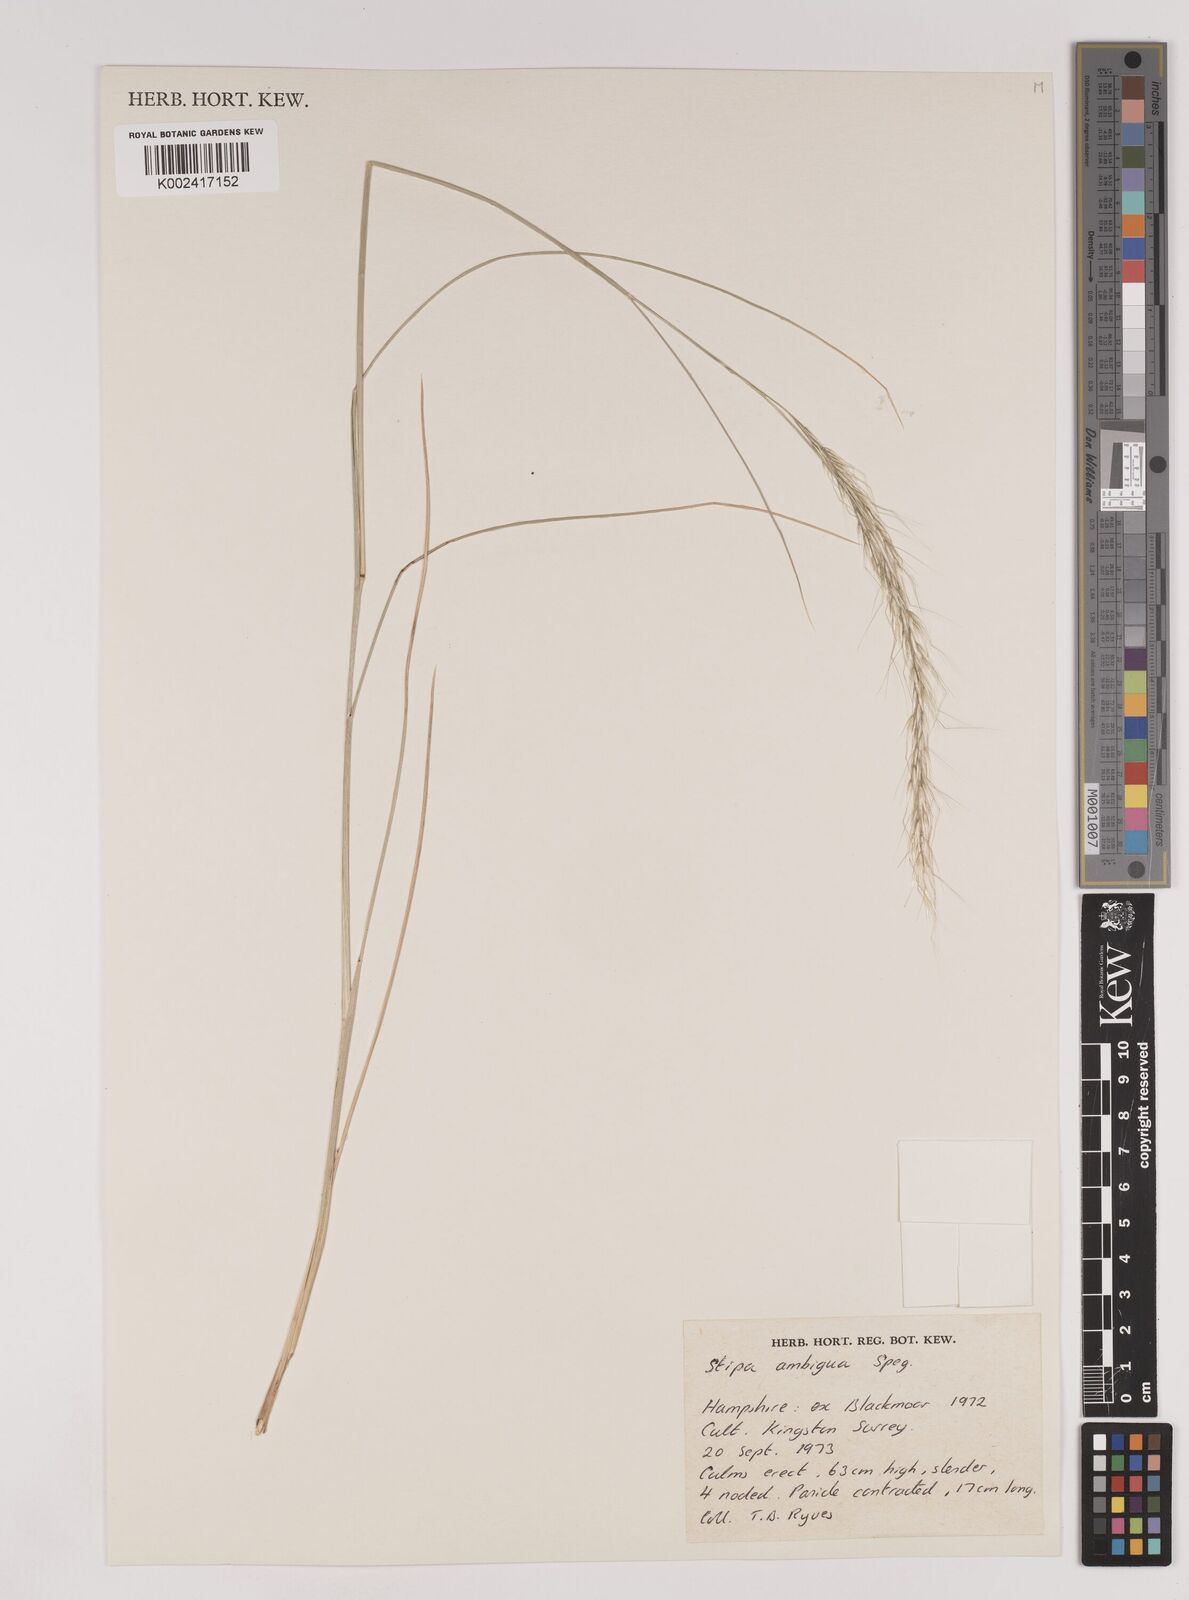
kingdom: Plantae
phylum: Tracheophyta
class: Liliopsida
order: Poales
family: Poaceae
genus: Amelichloa
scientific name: Amelichloa ambigua
